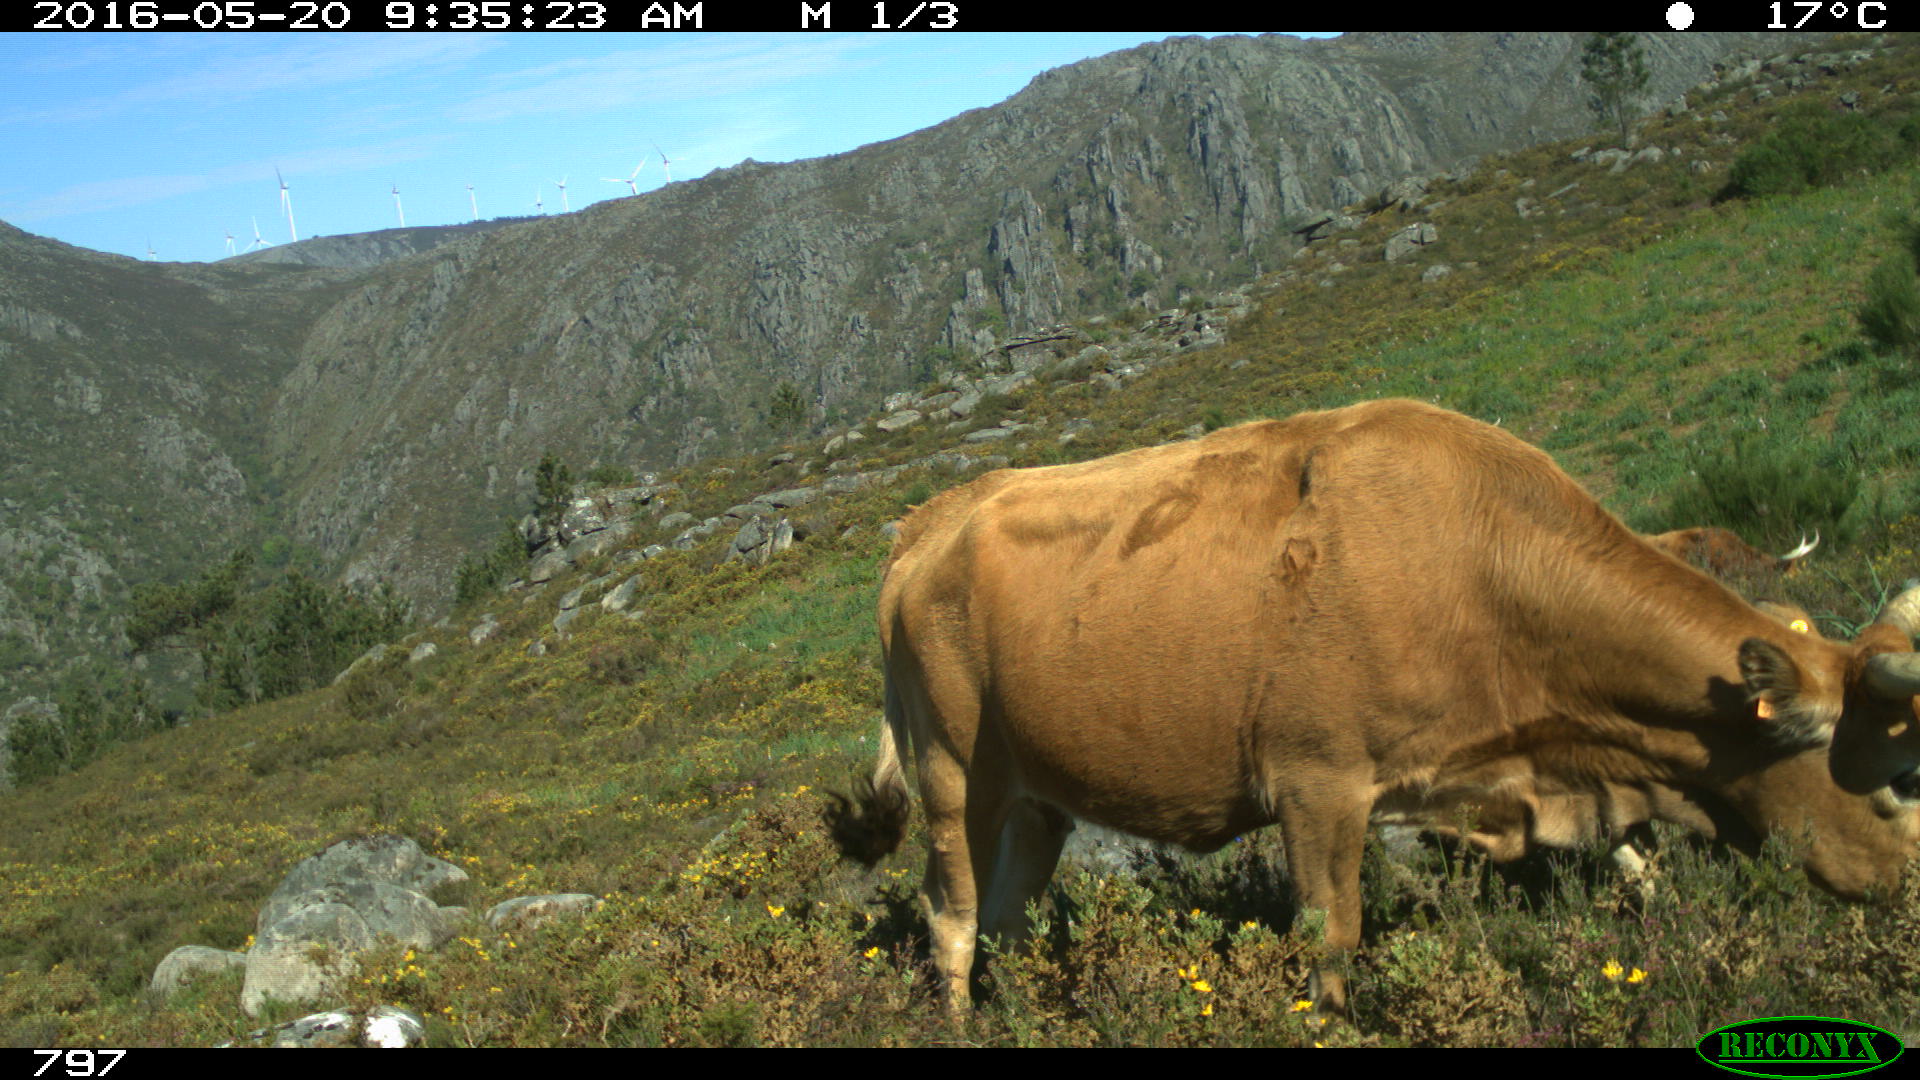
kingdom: Animalia
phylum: Chordata
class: Mammalia
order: Artiodactyla
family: Bovidae
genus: Bos
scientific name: Bos taurus
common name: Domesticated cattle
